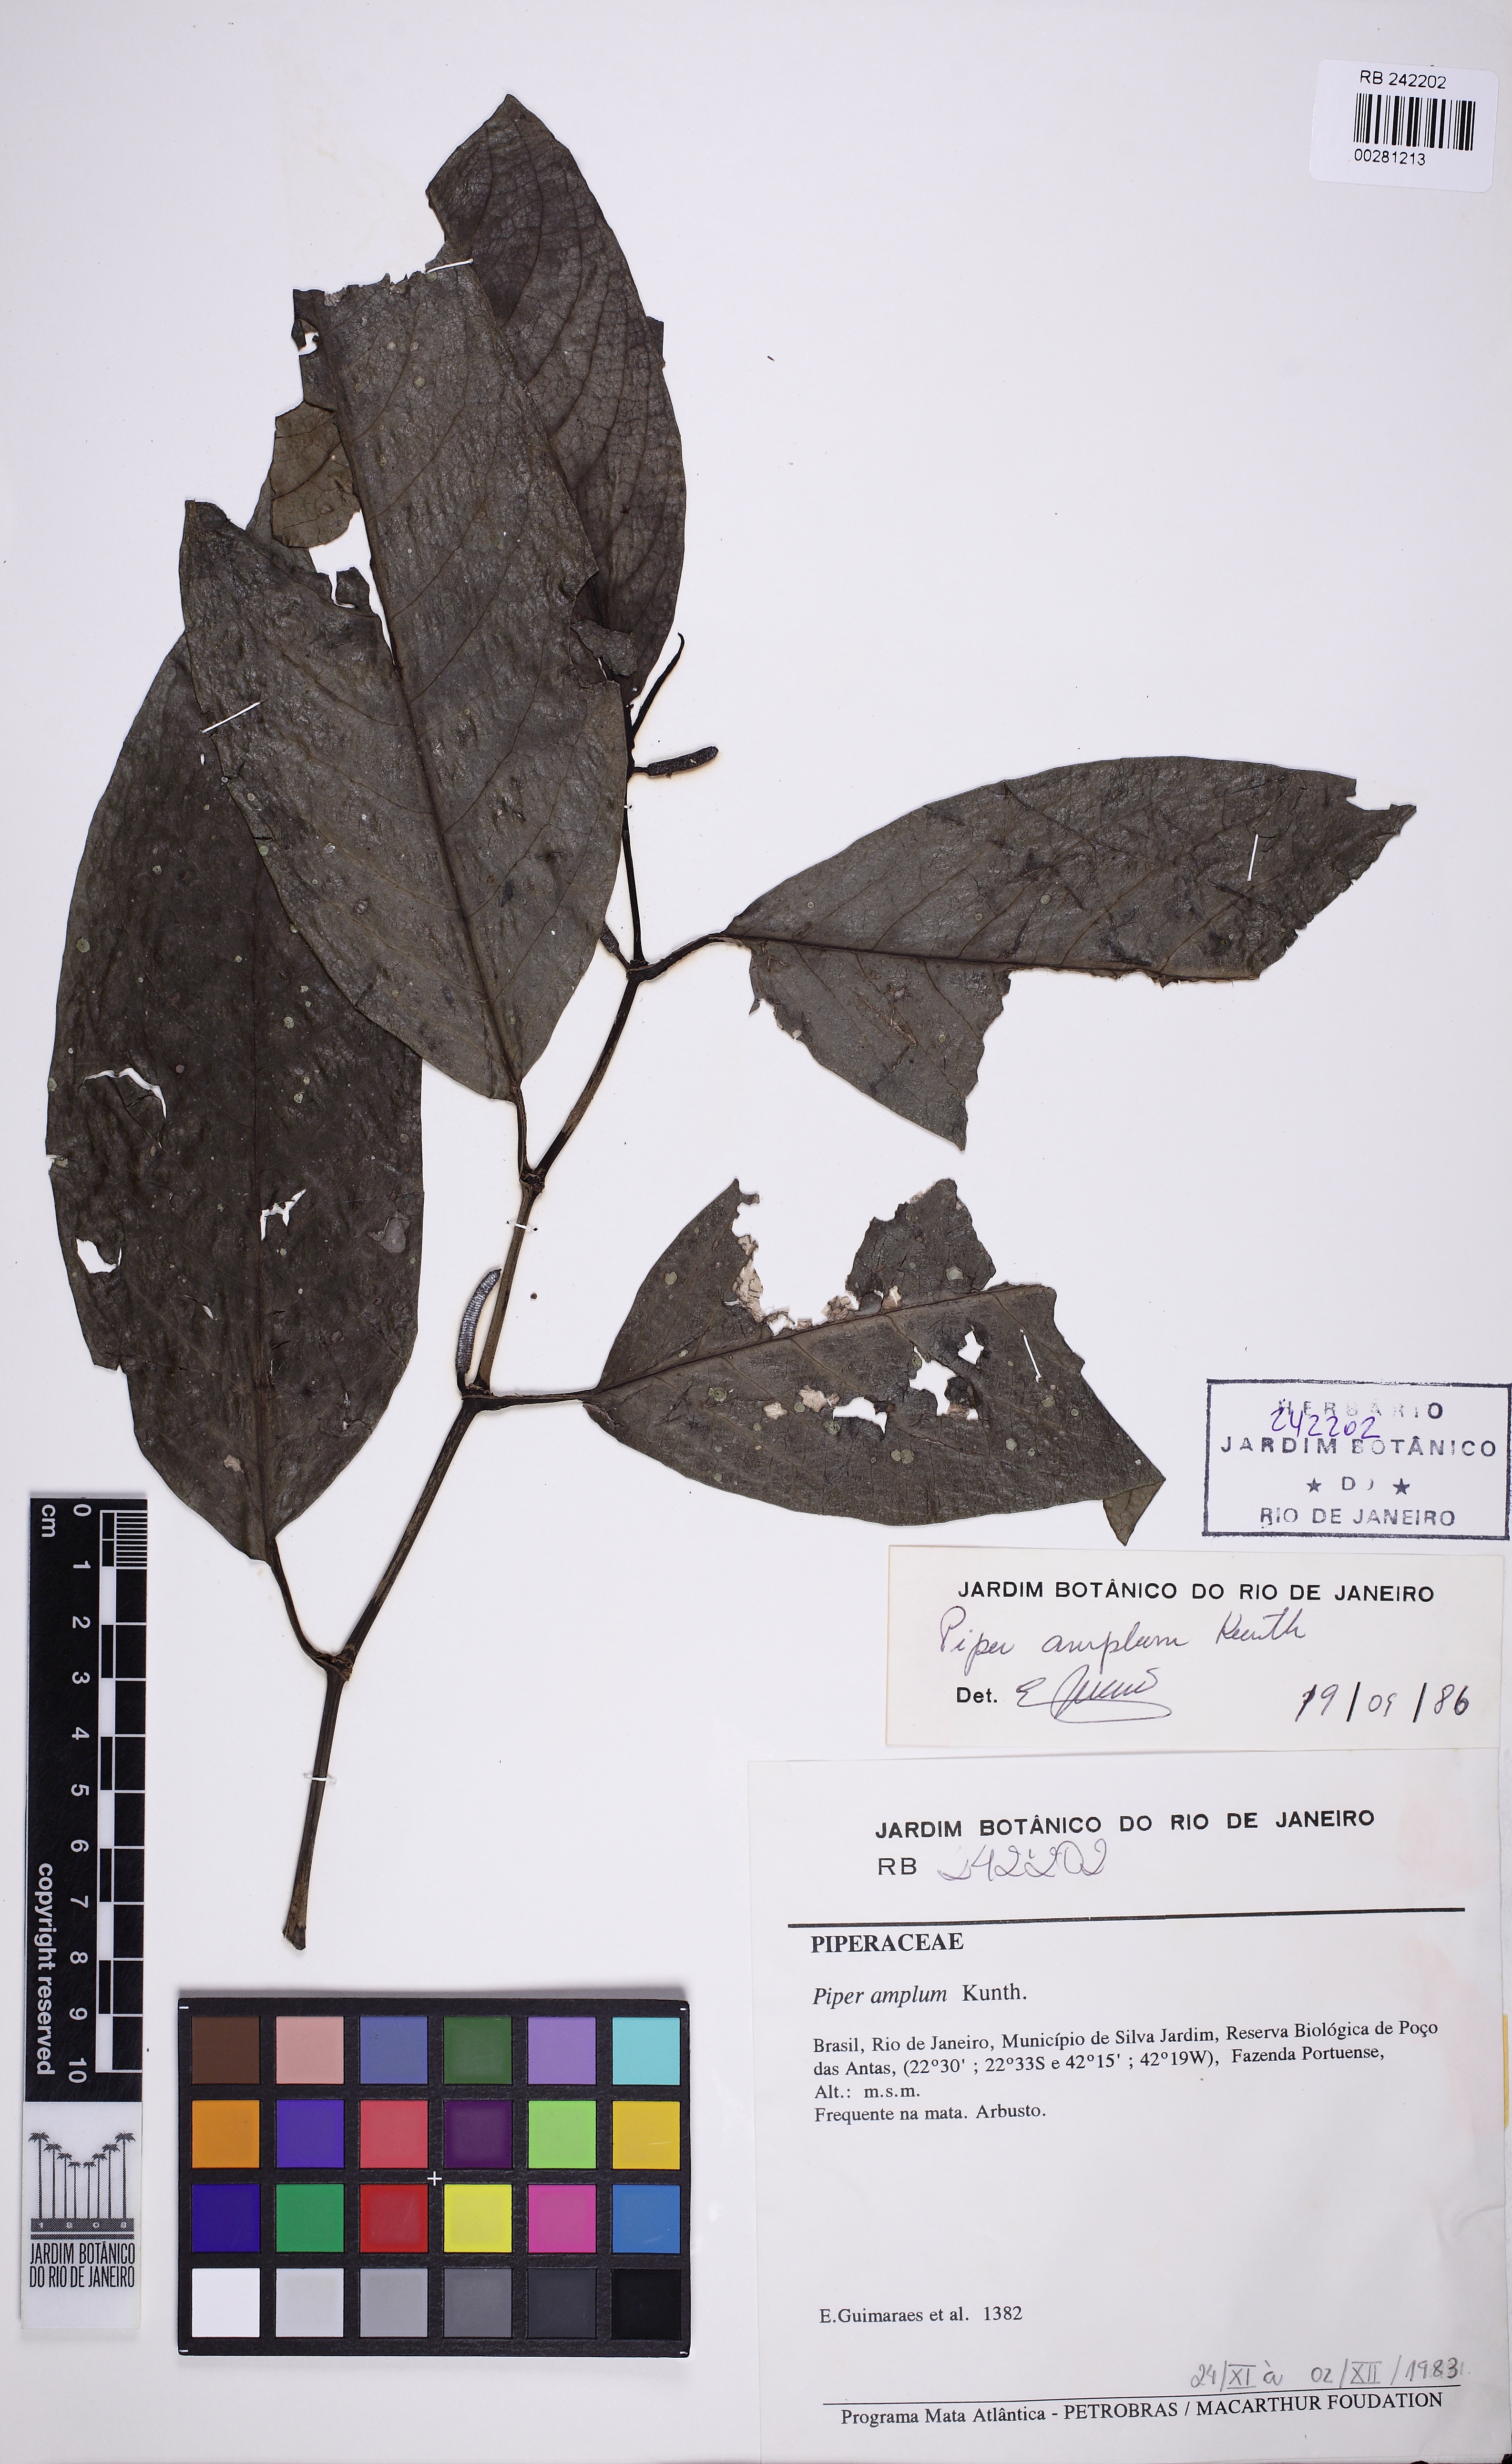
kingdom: Plantae
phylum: Tracheophyta
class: Magnoliopsida
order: Piperales
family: Piperaceae
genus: Piper
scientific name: Piper fluminense
